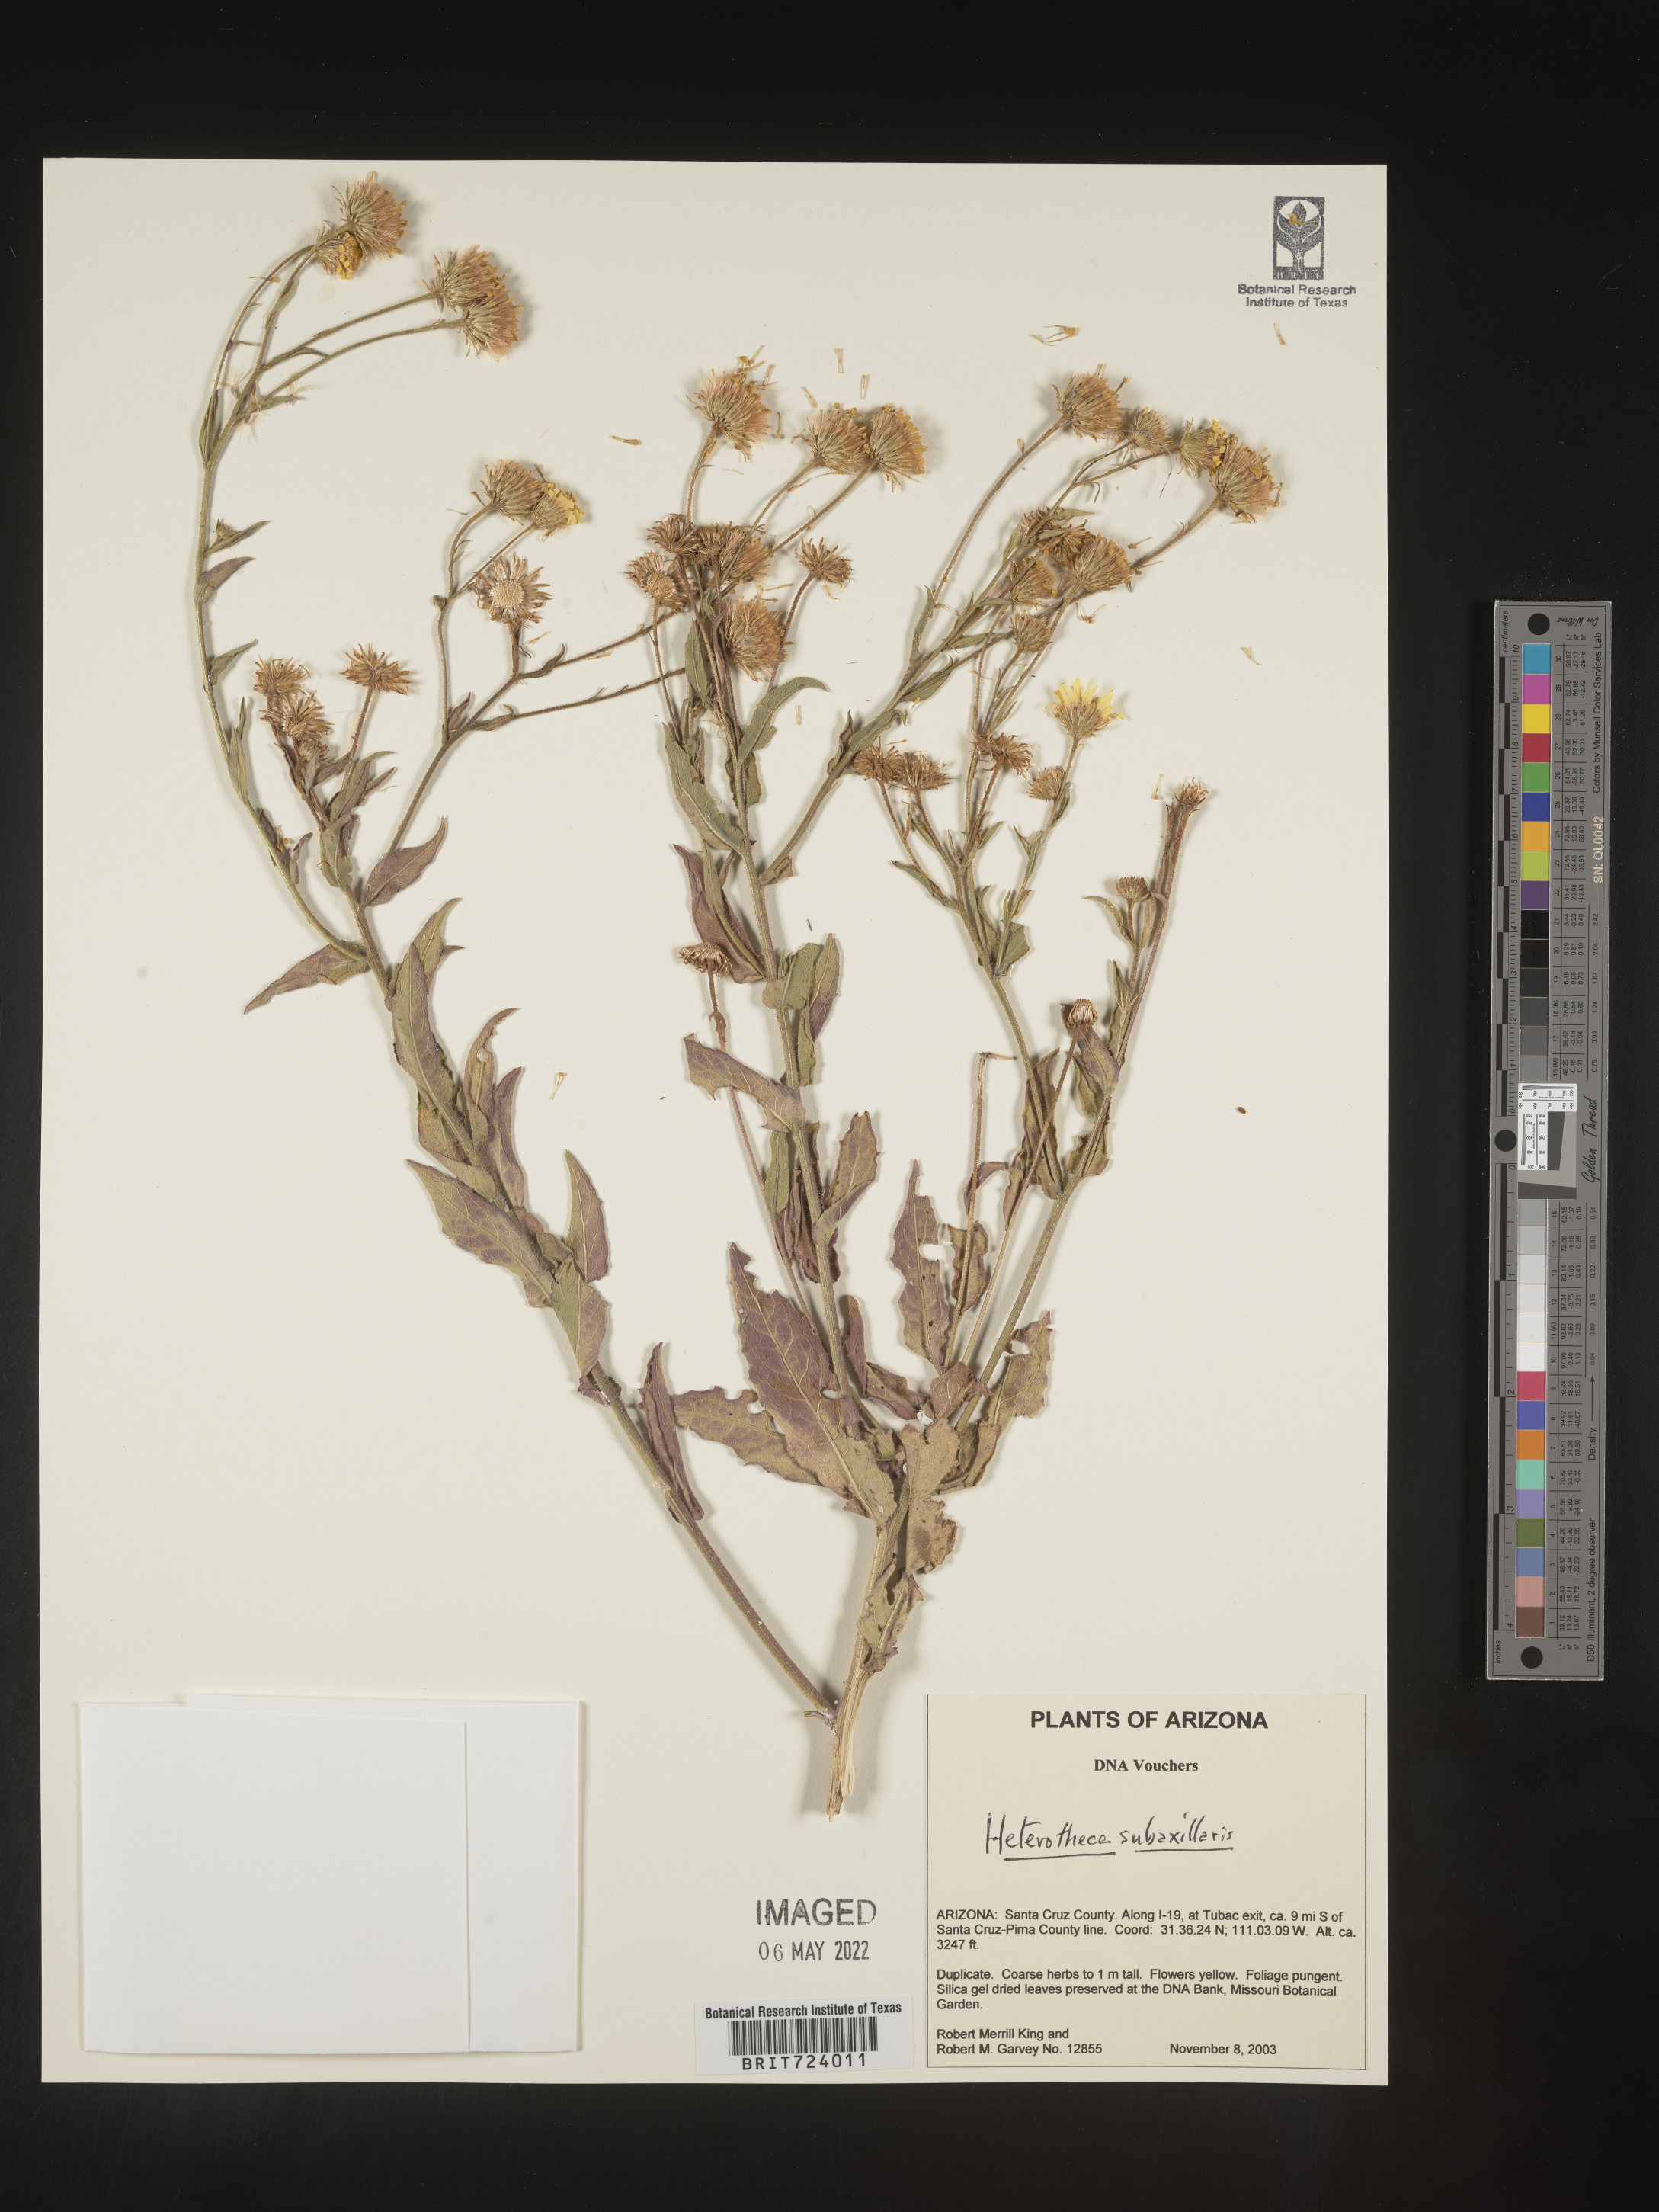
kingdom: Plantae
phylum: Tracheophyta
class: Magnoliopsida
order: Asterales
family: Asteraceae
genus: Heterotheca
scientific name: Heterotheca subaxillaris
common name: Camphorweed
